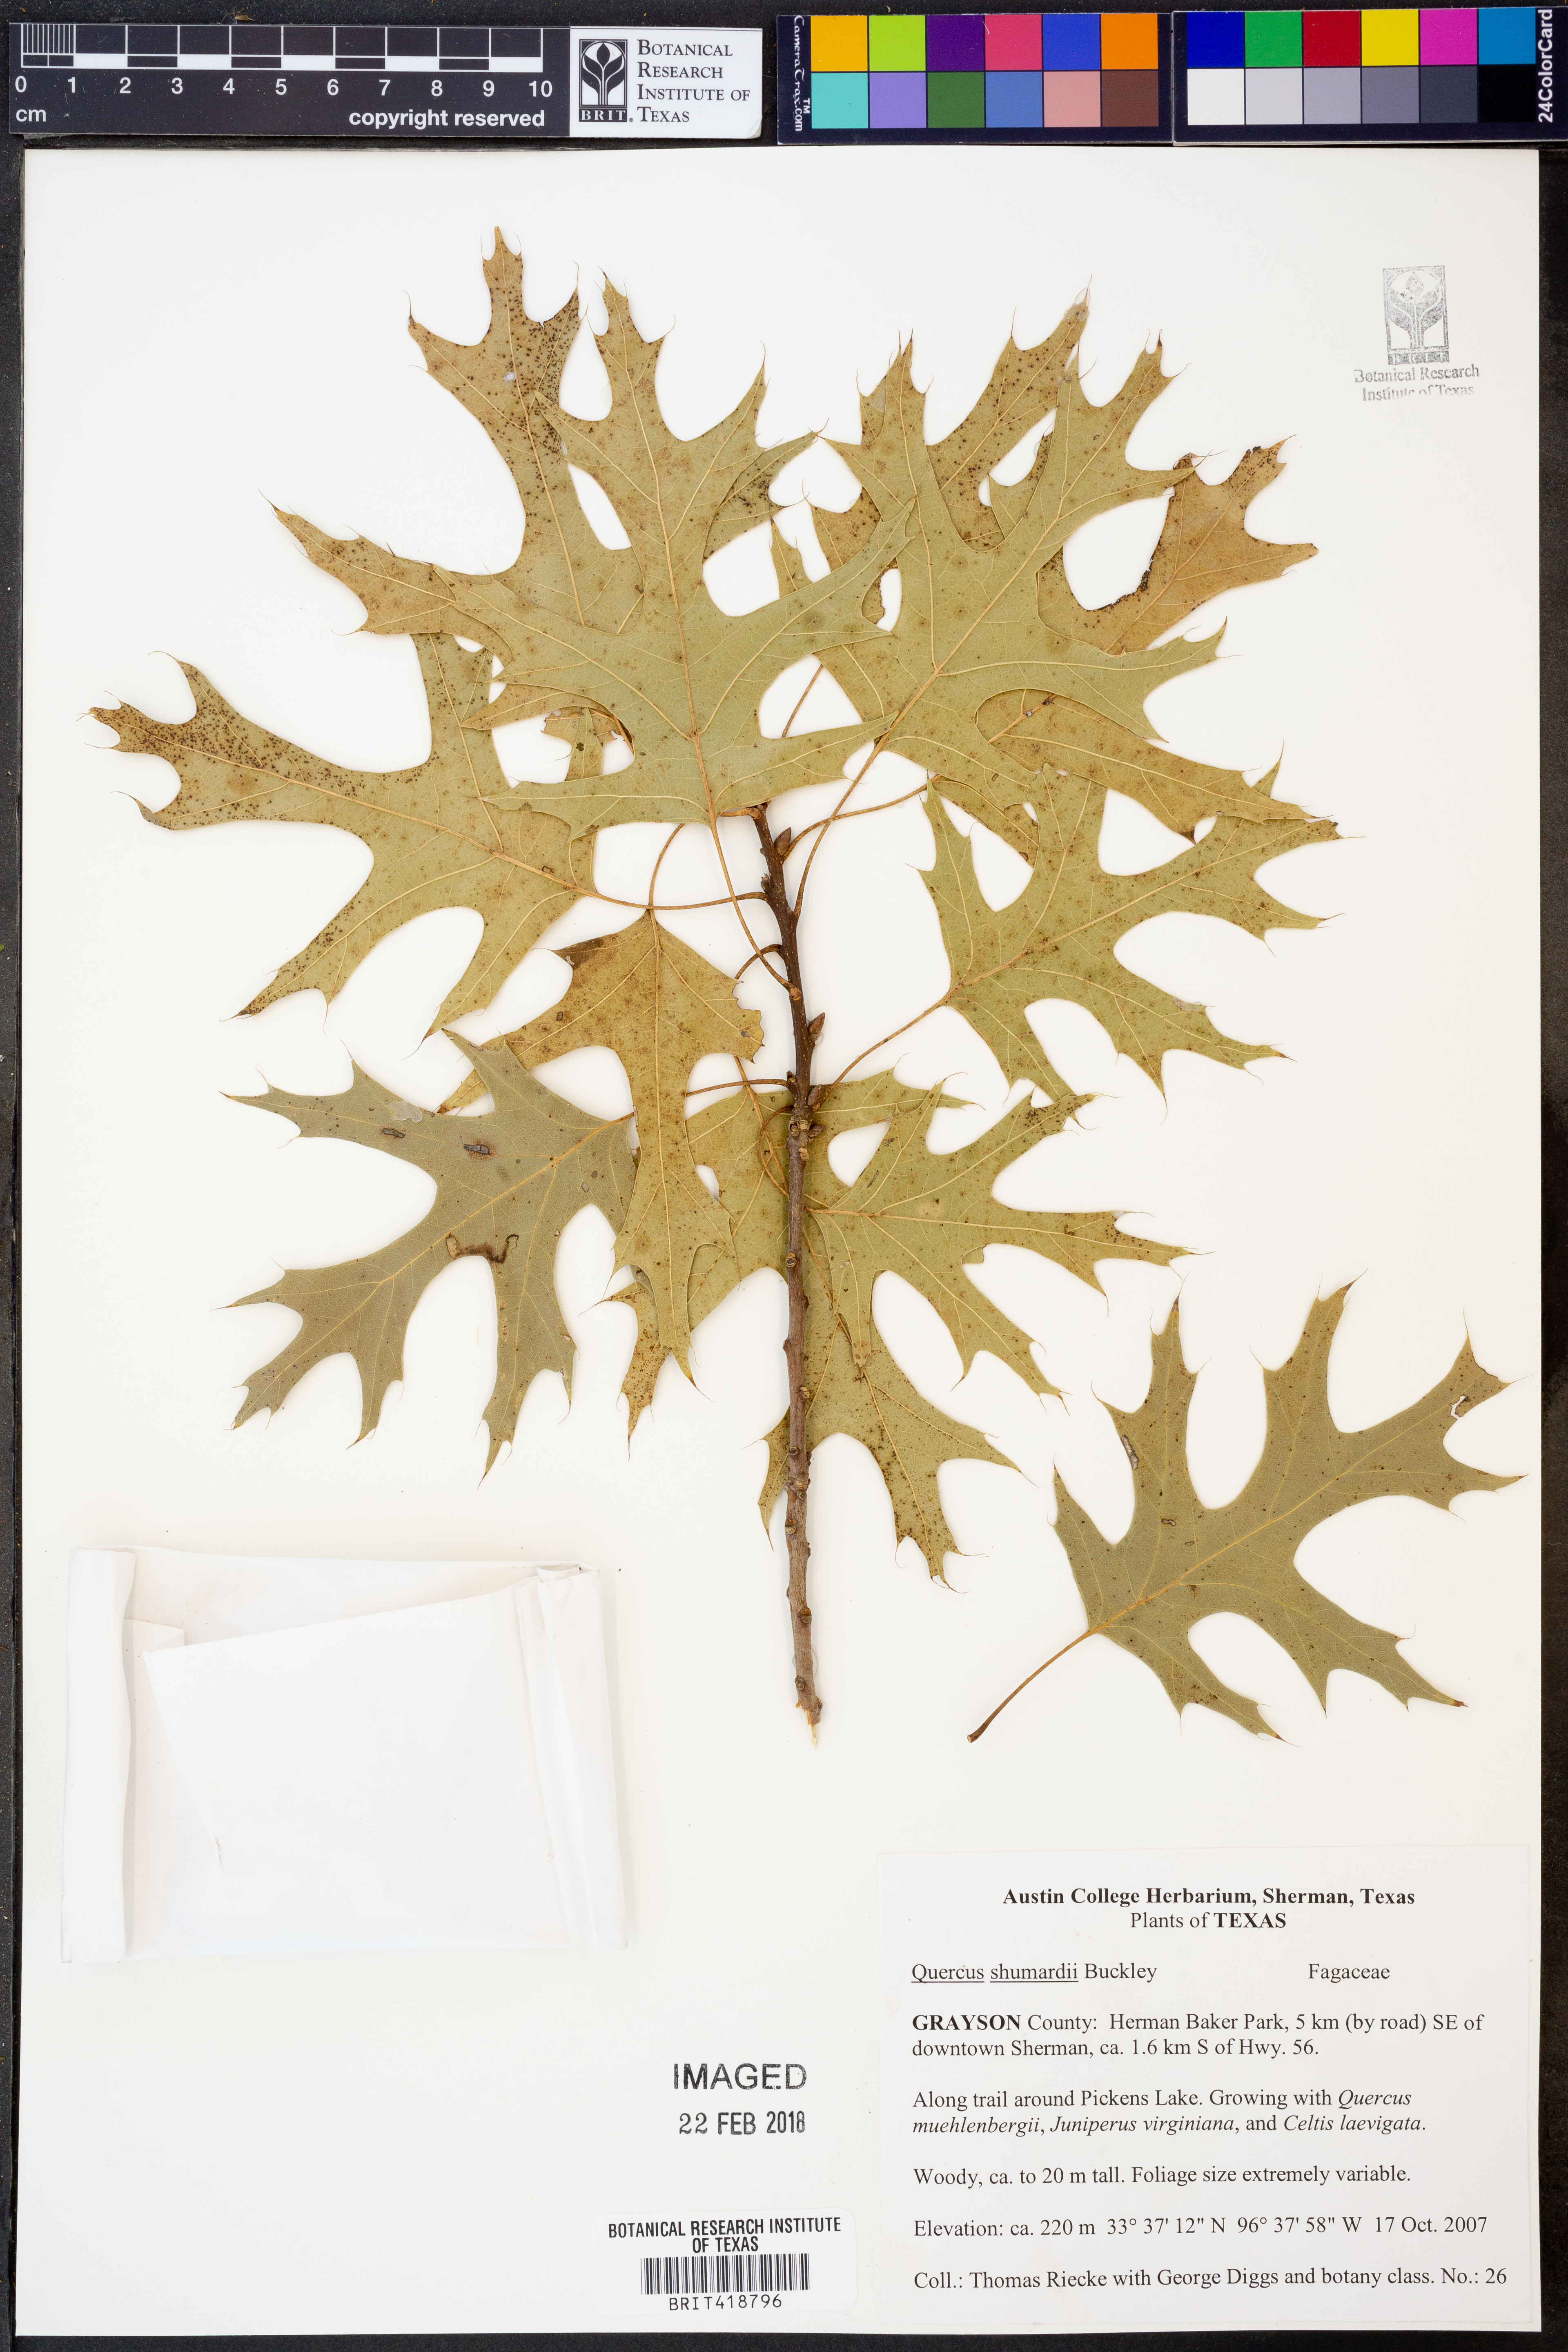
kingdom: Plantae
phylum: Tracheophyta
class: Magnoliopsida
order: Fagales
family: Fagaceae
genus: Quercus
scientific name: Quercus shumardii
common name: Shumard oak
